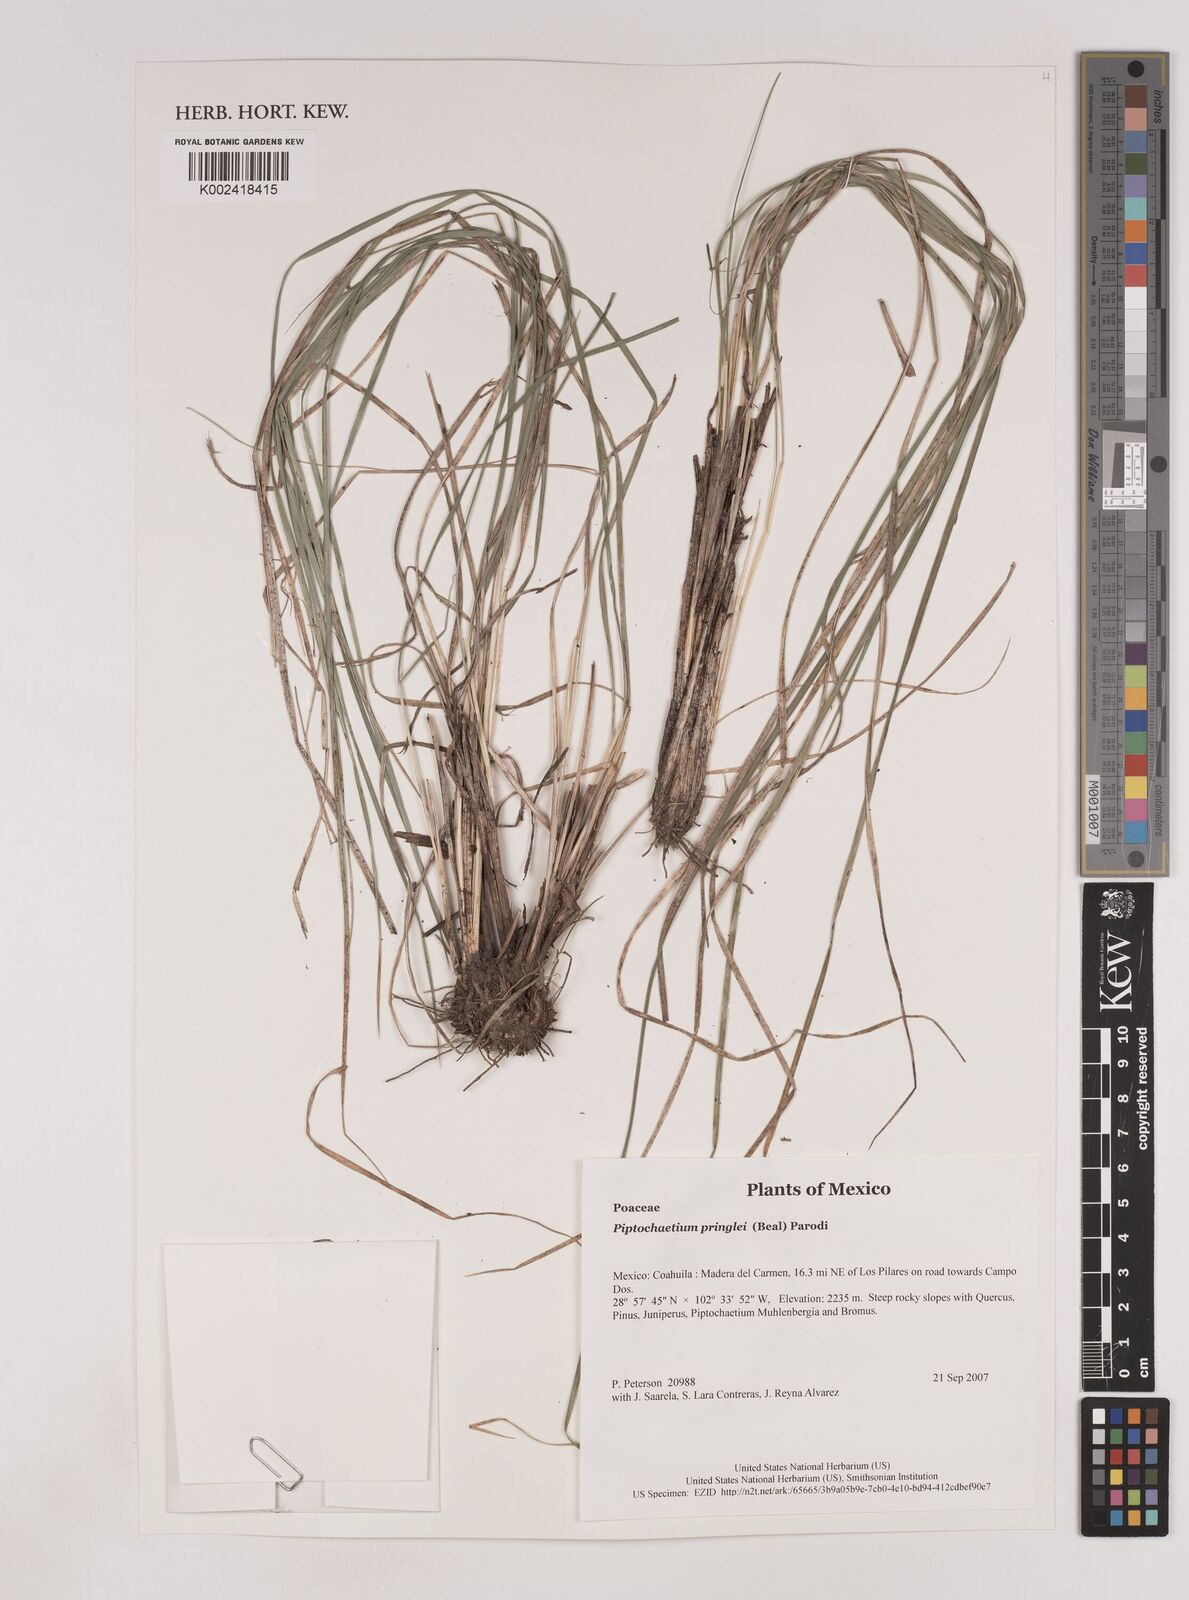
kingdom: Plantae
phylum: Tracheophyta
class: Liliopsida
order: Poales
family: Poaceae
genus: Piptochaetium
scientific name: Piptochaetium pringlei
